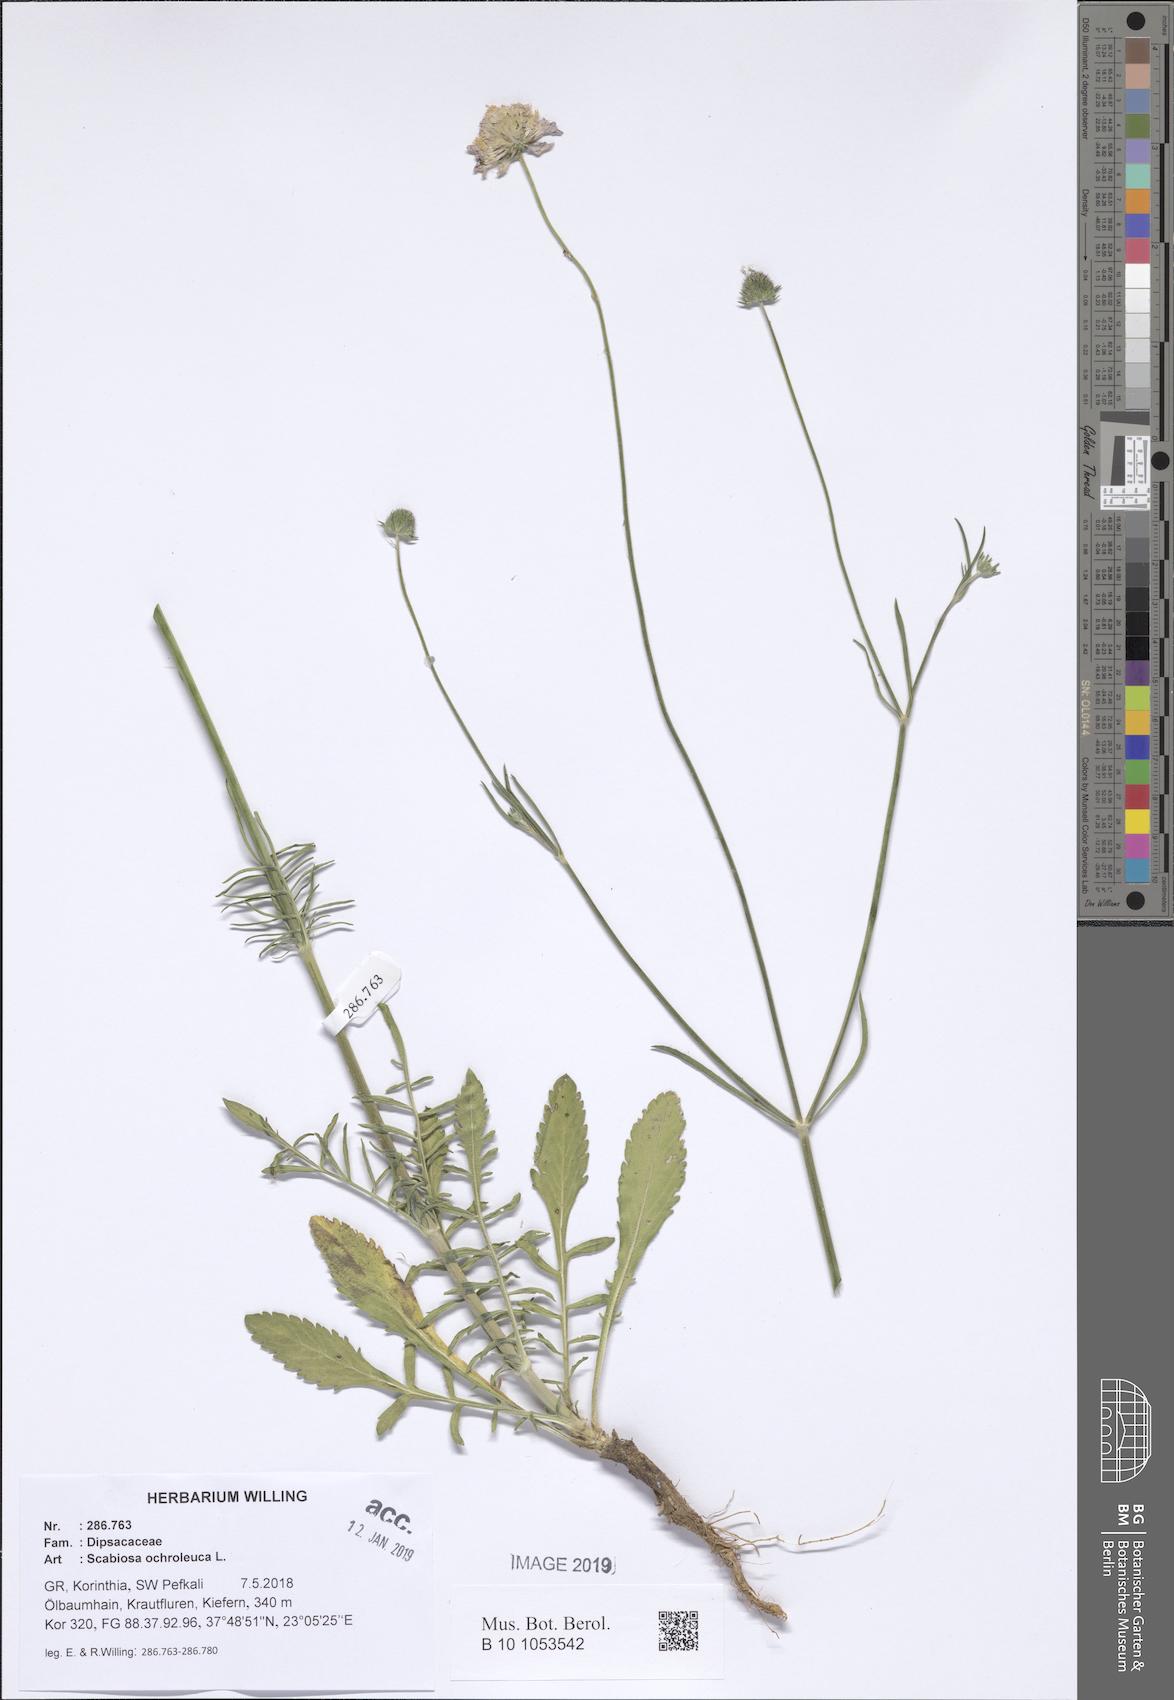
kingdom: Plantae
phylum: Tracheophyta
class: Magnoliopsida
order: Dipsacales
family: Caprifoliaceae
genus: Scabiosa
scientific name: Scabiosa ochroleuca
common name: Cream pincushions
